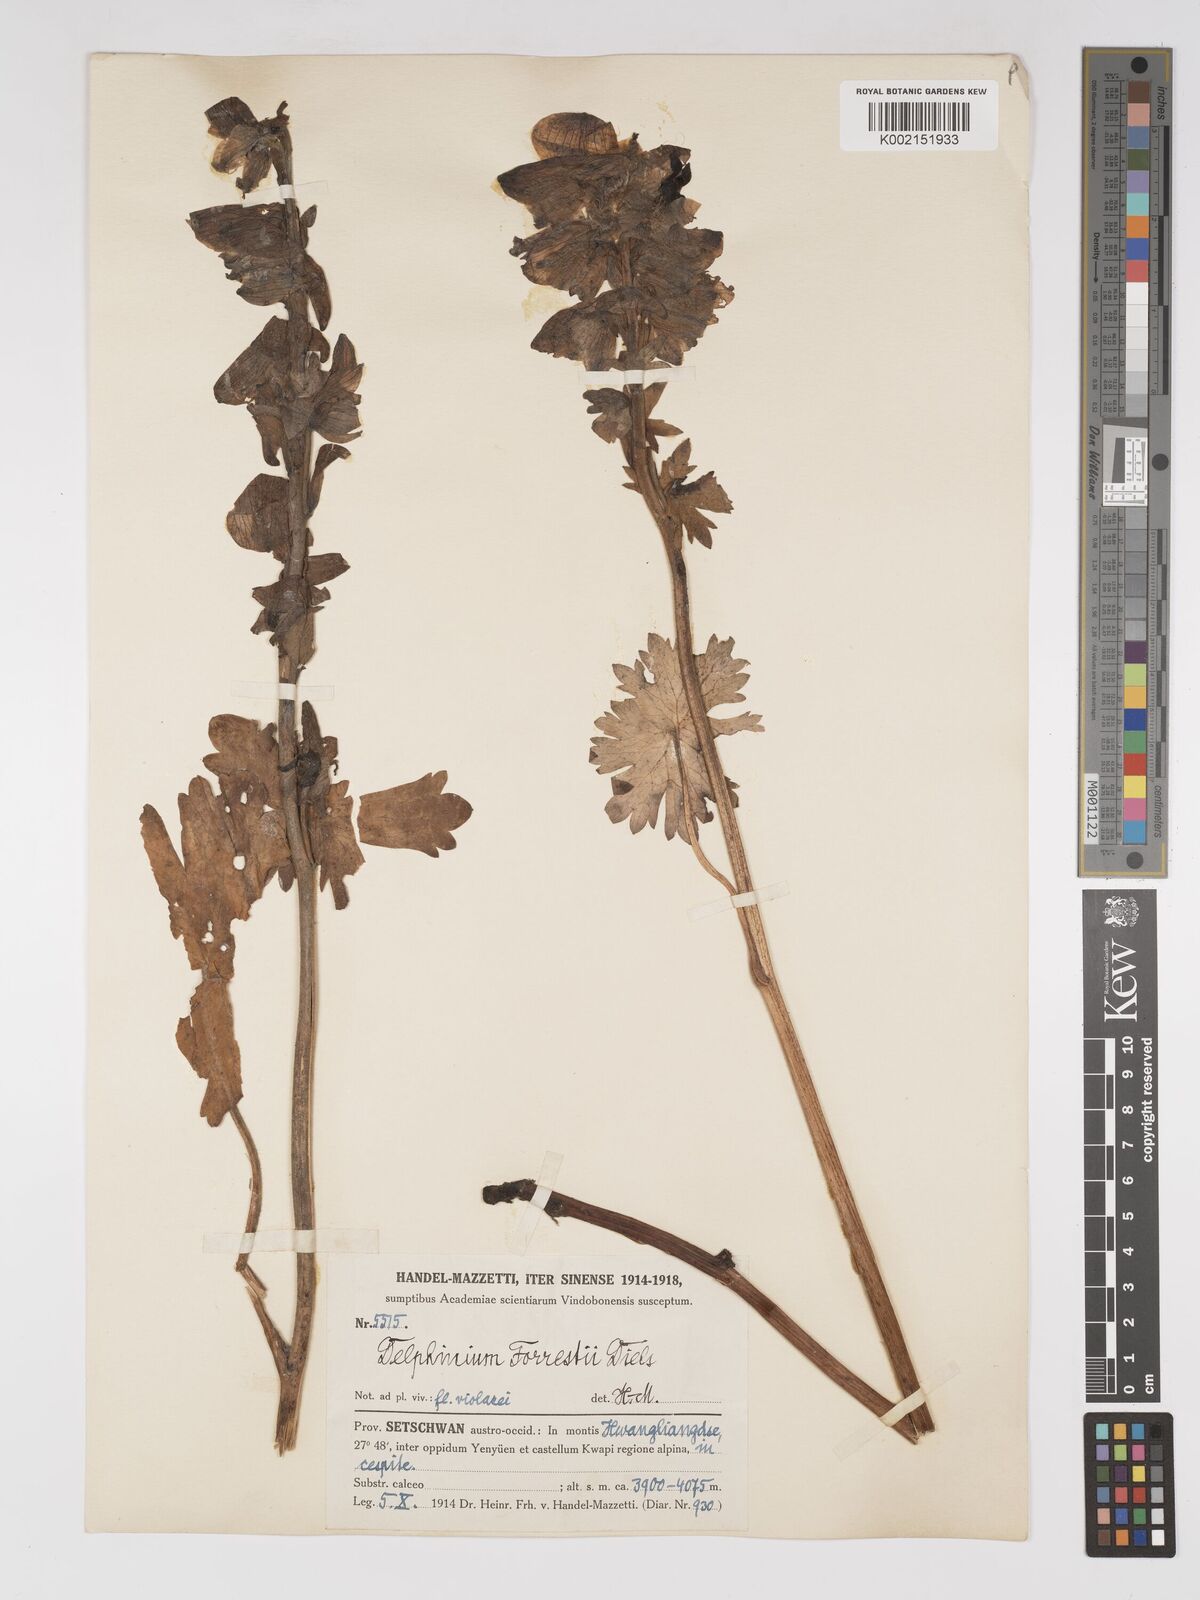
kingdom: Plantae
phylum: Tracheophyta
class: Magnoliopsida
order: Ranunculales
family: Ranunculaceae
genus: Delphinium
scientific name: Delphinium trichophorum
